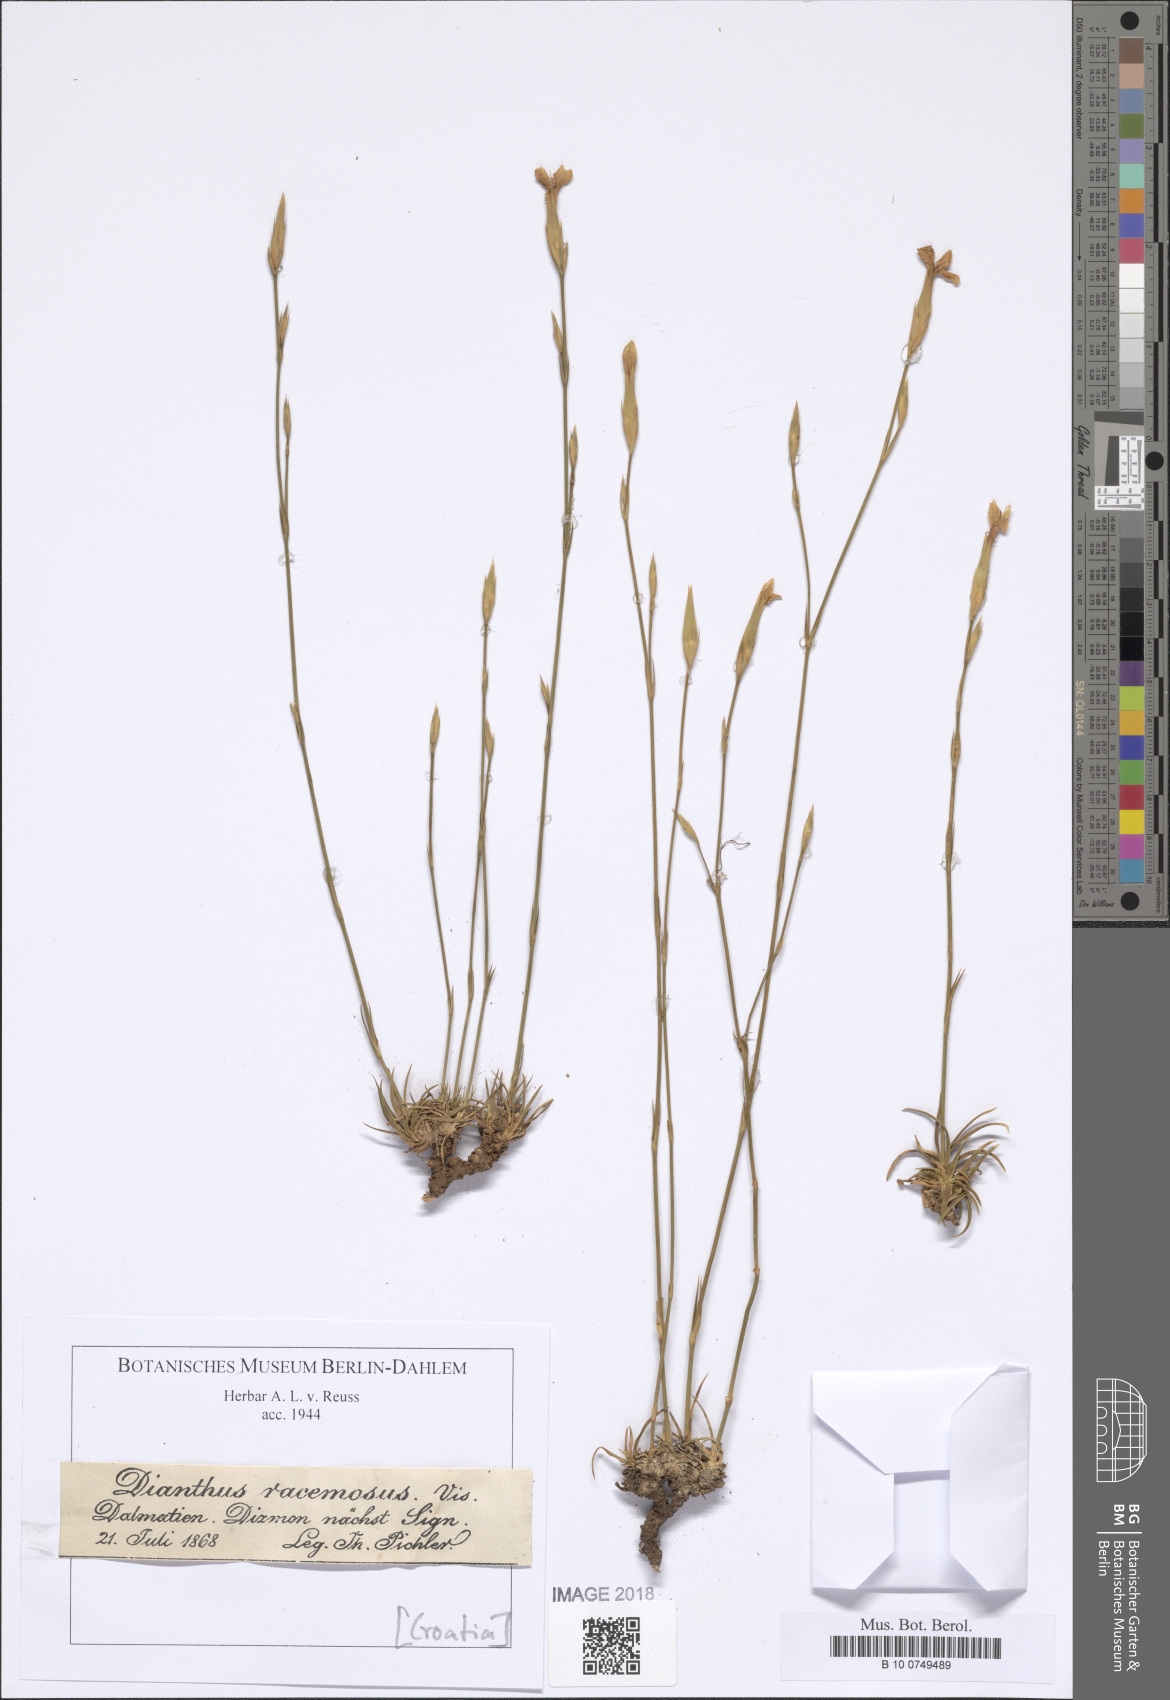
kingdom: Plantae
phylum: Tracheophyta
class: Magnoliopsida
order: Caryophyllales
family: Caryophyllaceae
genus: Dianthus
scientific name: Dianthus ciliatus
